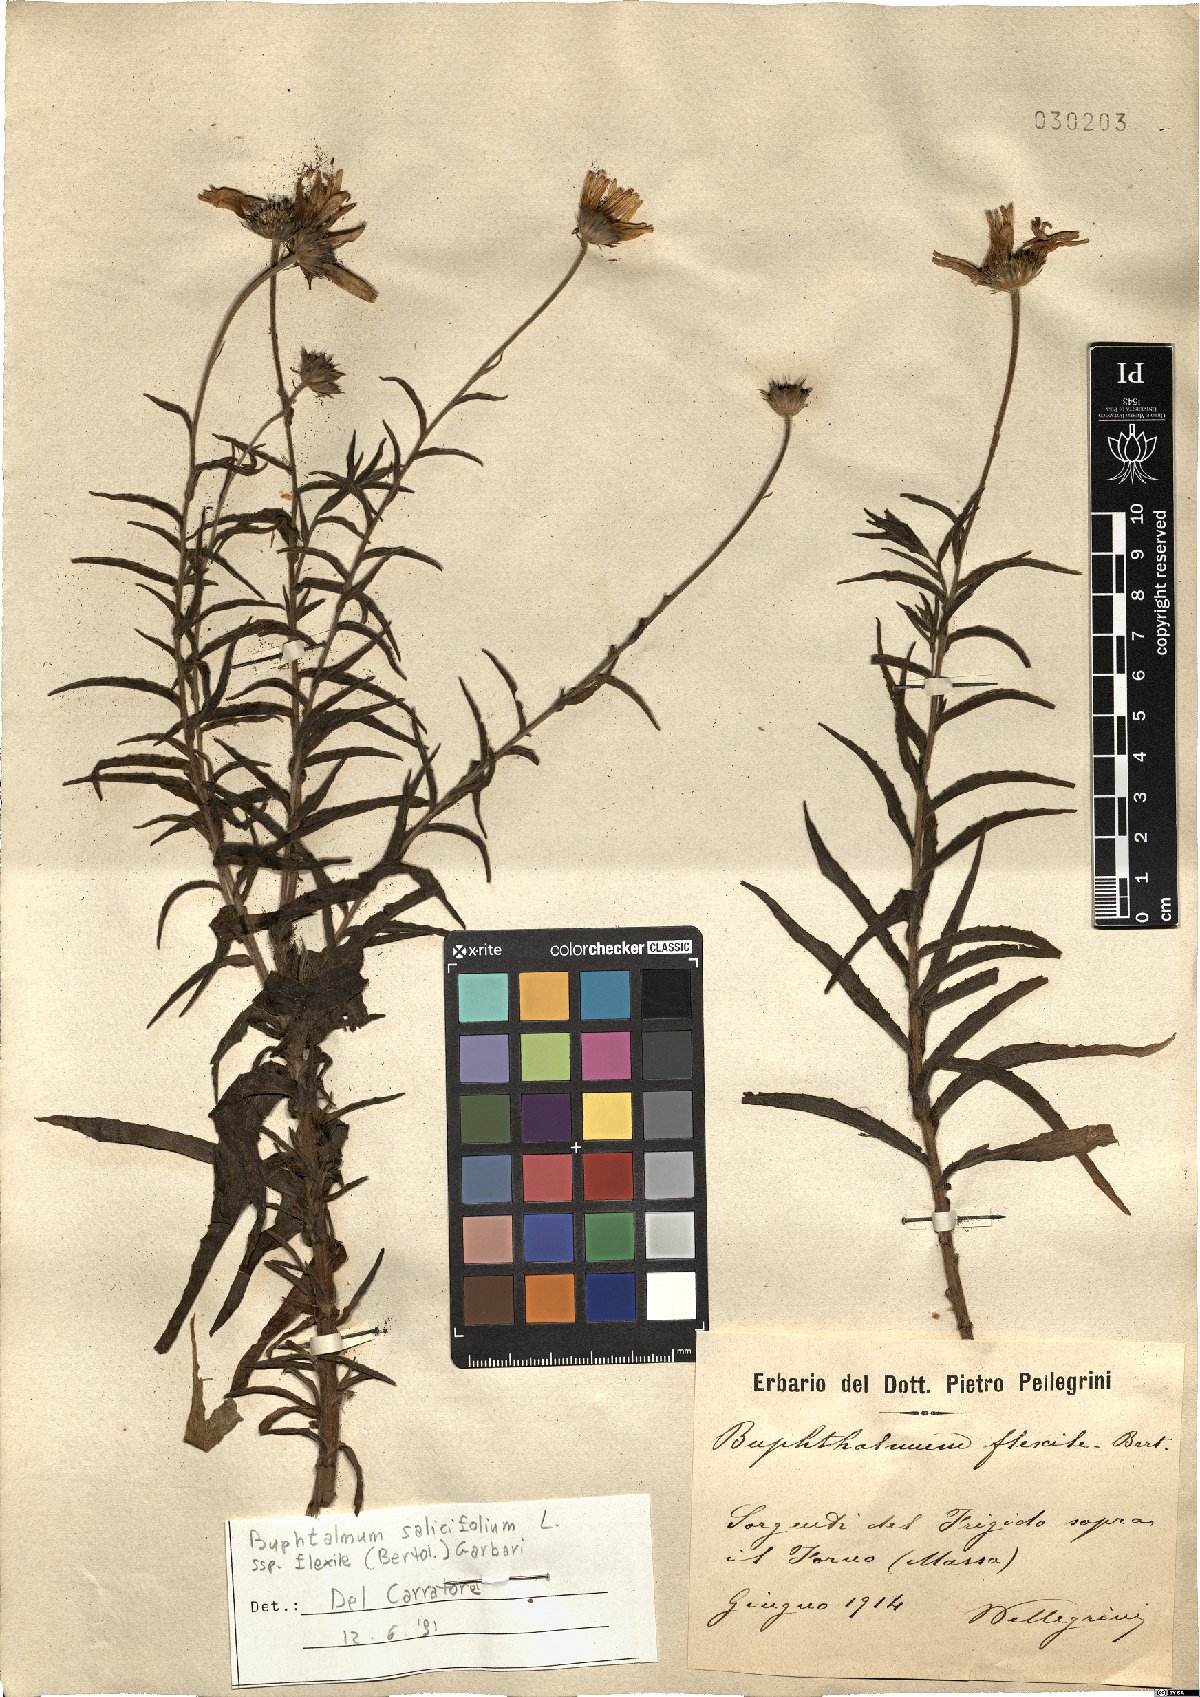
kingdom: Plantae
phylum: Tracheophyta
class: Magnoliopsida
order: Asterales
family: Asteraceae
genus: Buphthalmum
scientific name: Buphthalmum salicifolium
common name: Willow-leaved yellow-oxeye
